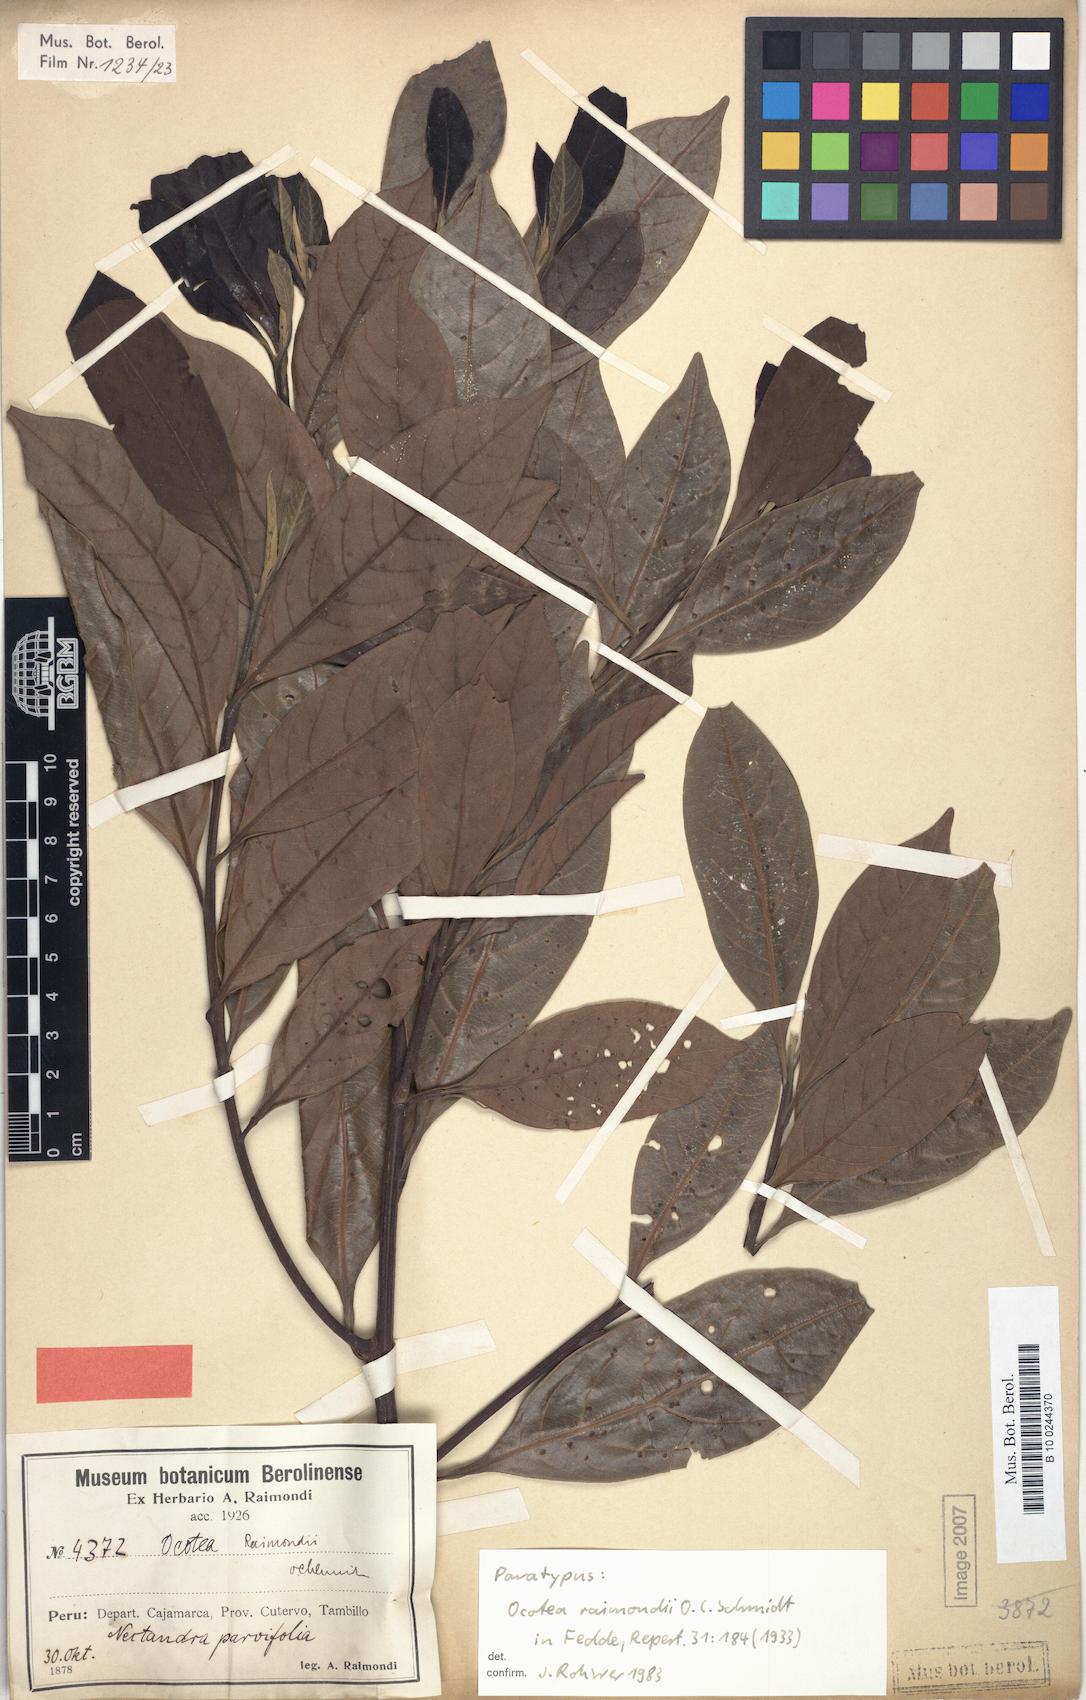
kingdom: Plantae
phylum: Tracheophyta
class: Magnoliopsida
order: Laurales
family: Lauraceae
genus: Ocotea
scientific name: Ocotea cuneifolia
